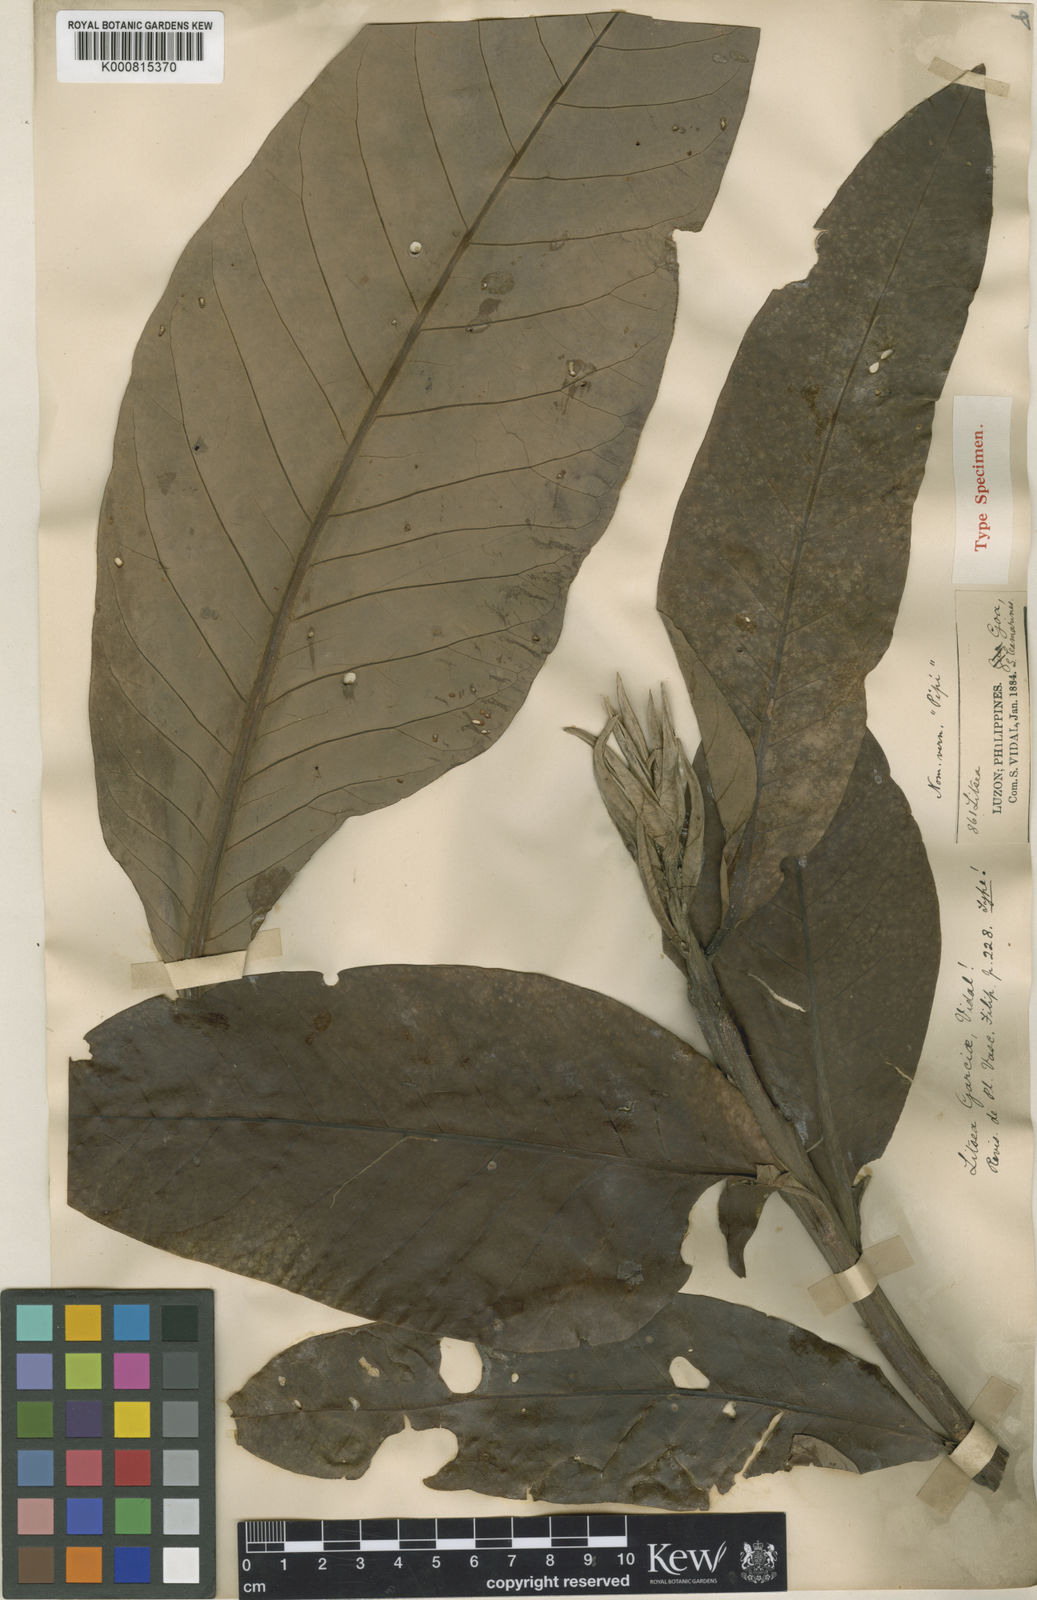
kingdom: Plantae
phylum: Tracheophyta
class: Magnoliopsida
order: Laurales
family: Lauraceae
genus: Litsea
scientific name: Litsea garciae
